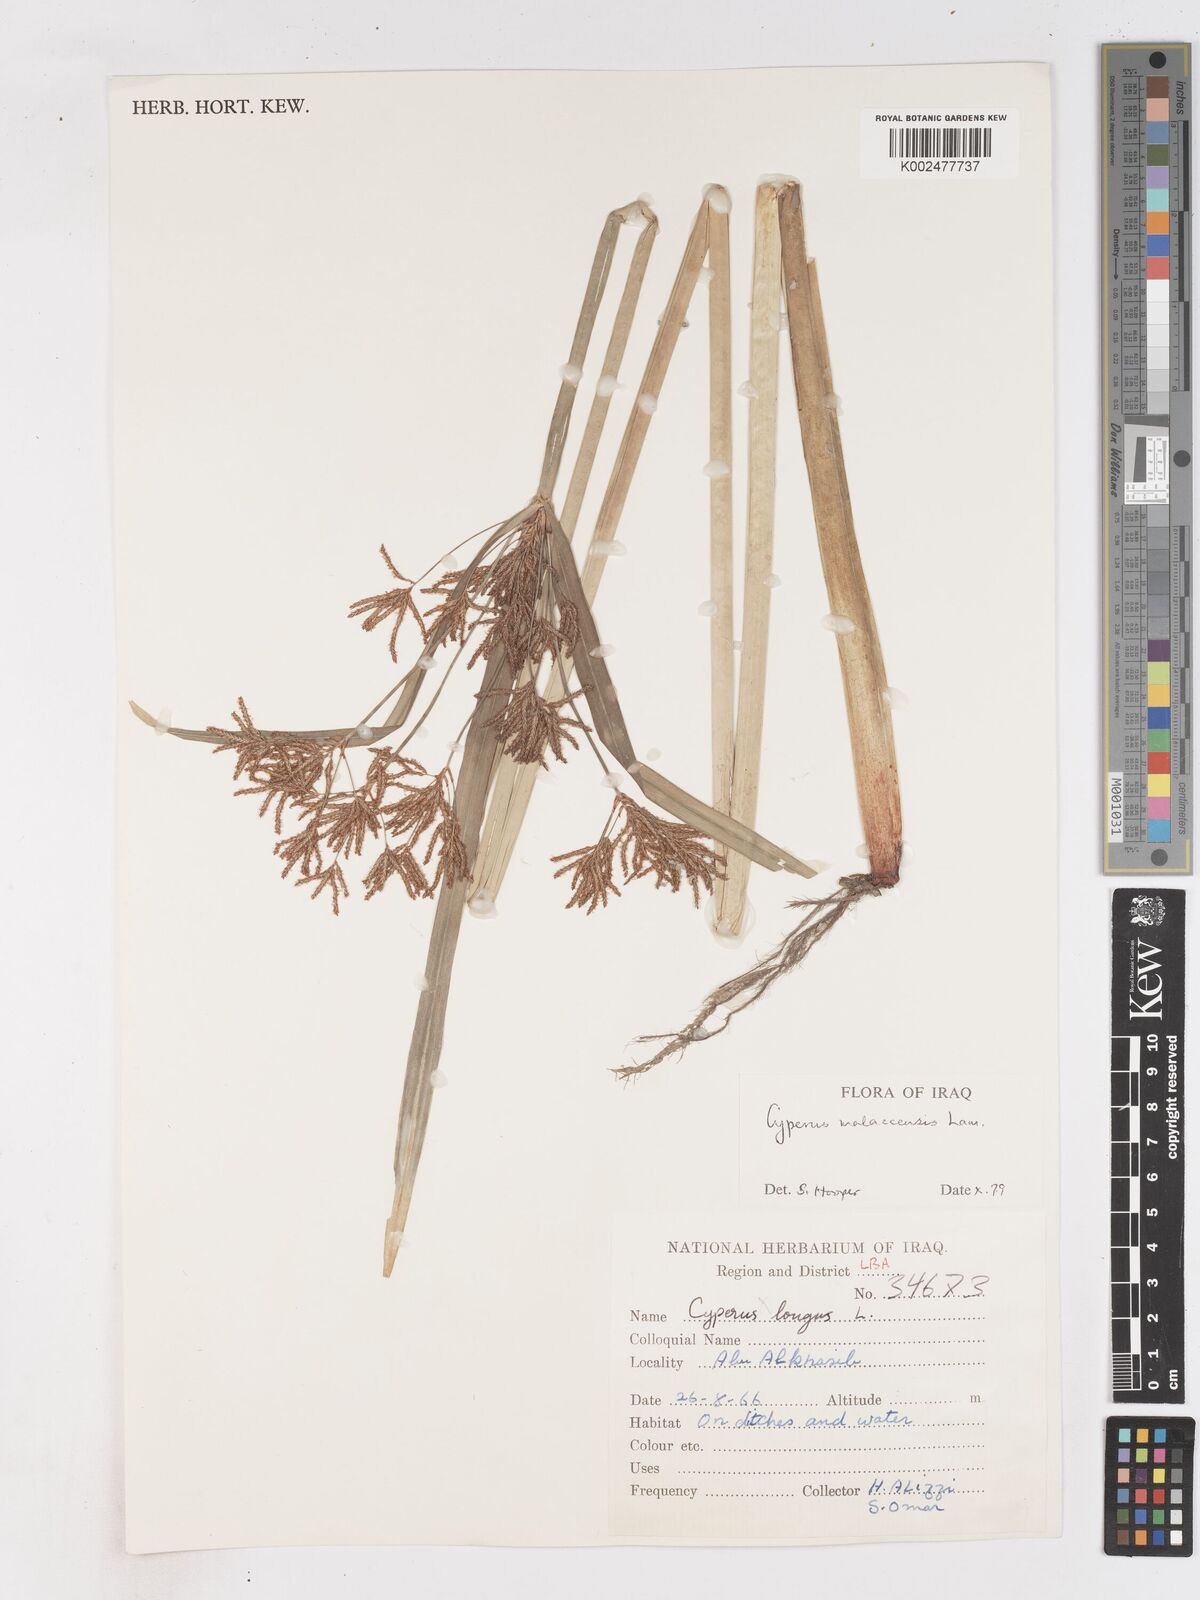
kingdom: Plantae
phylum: Tracheophyta
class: Liliopsida
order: Poales
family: Cyperaceae
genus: Cyperus
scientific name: Cyperus malaccensis
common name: Shichito matgrass
